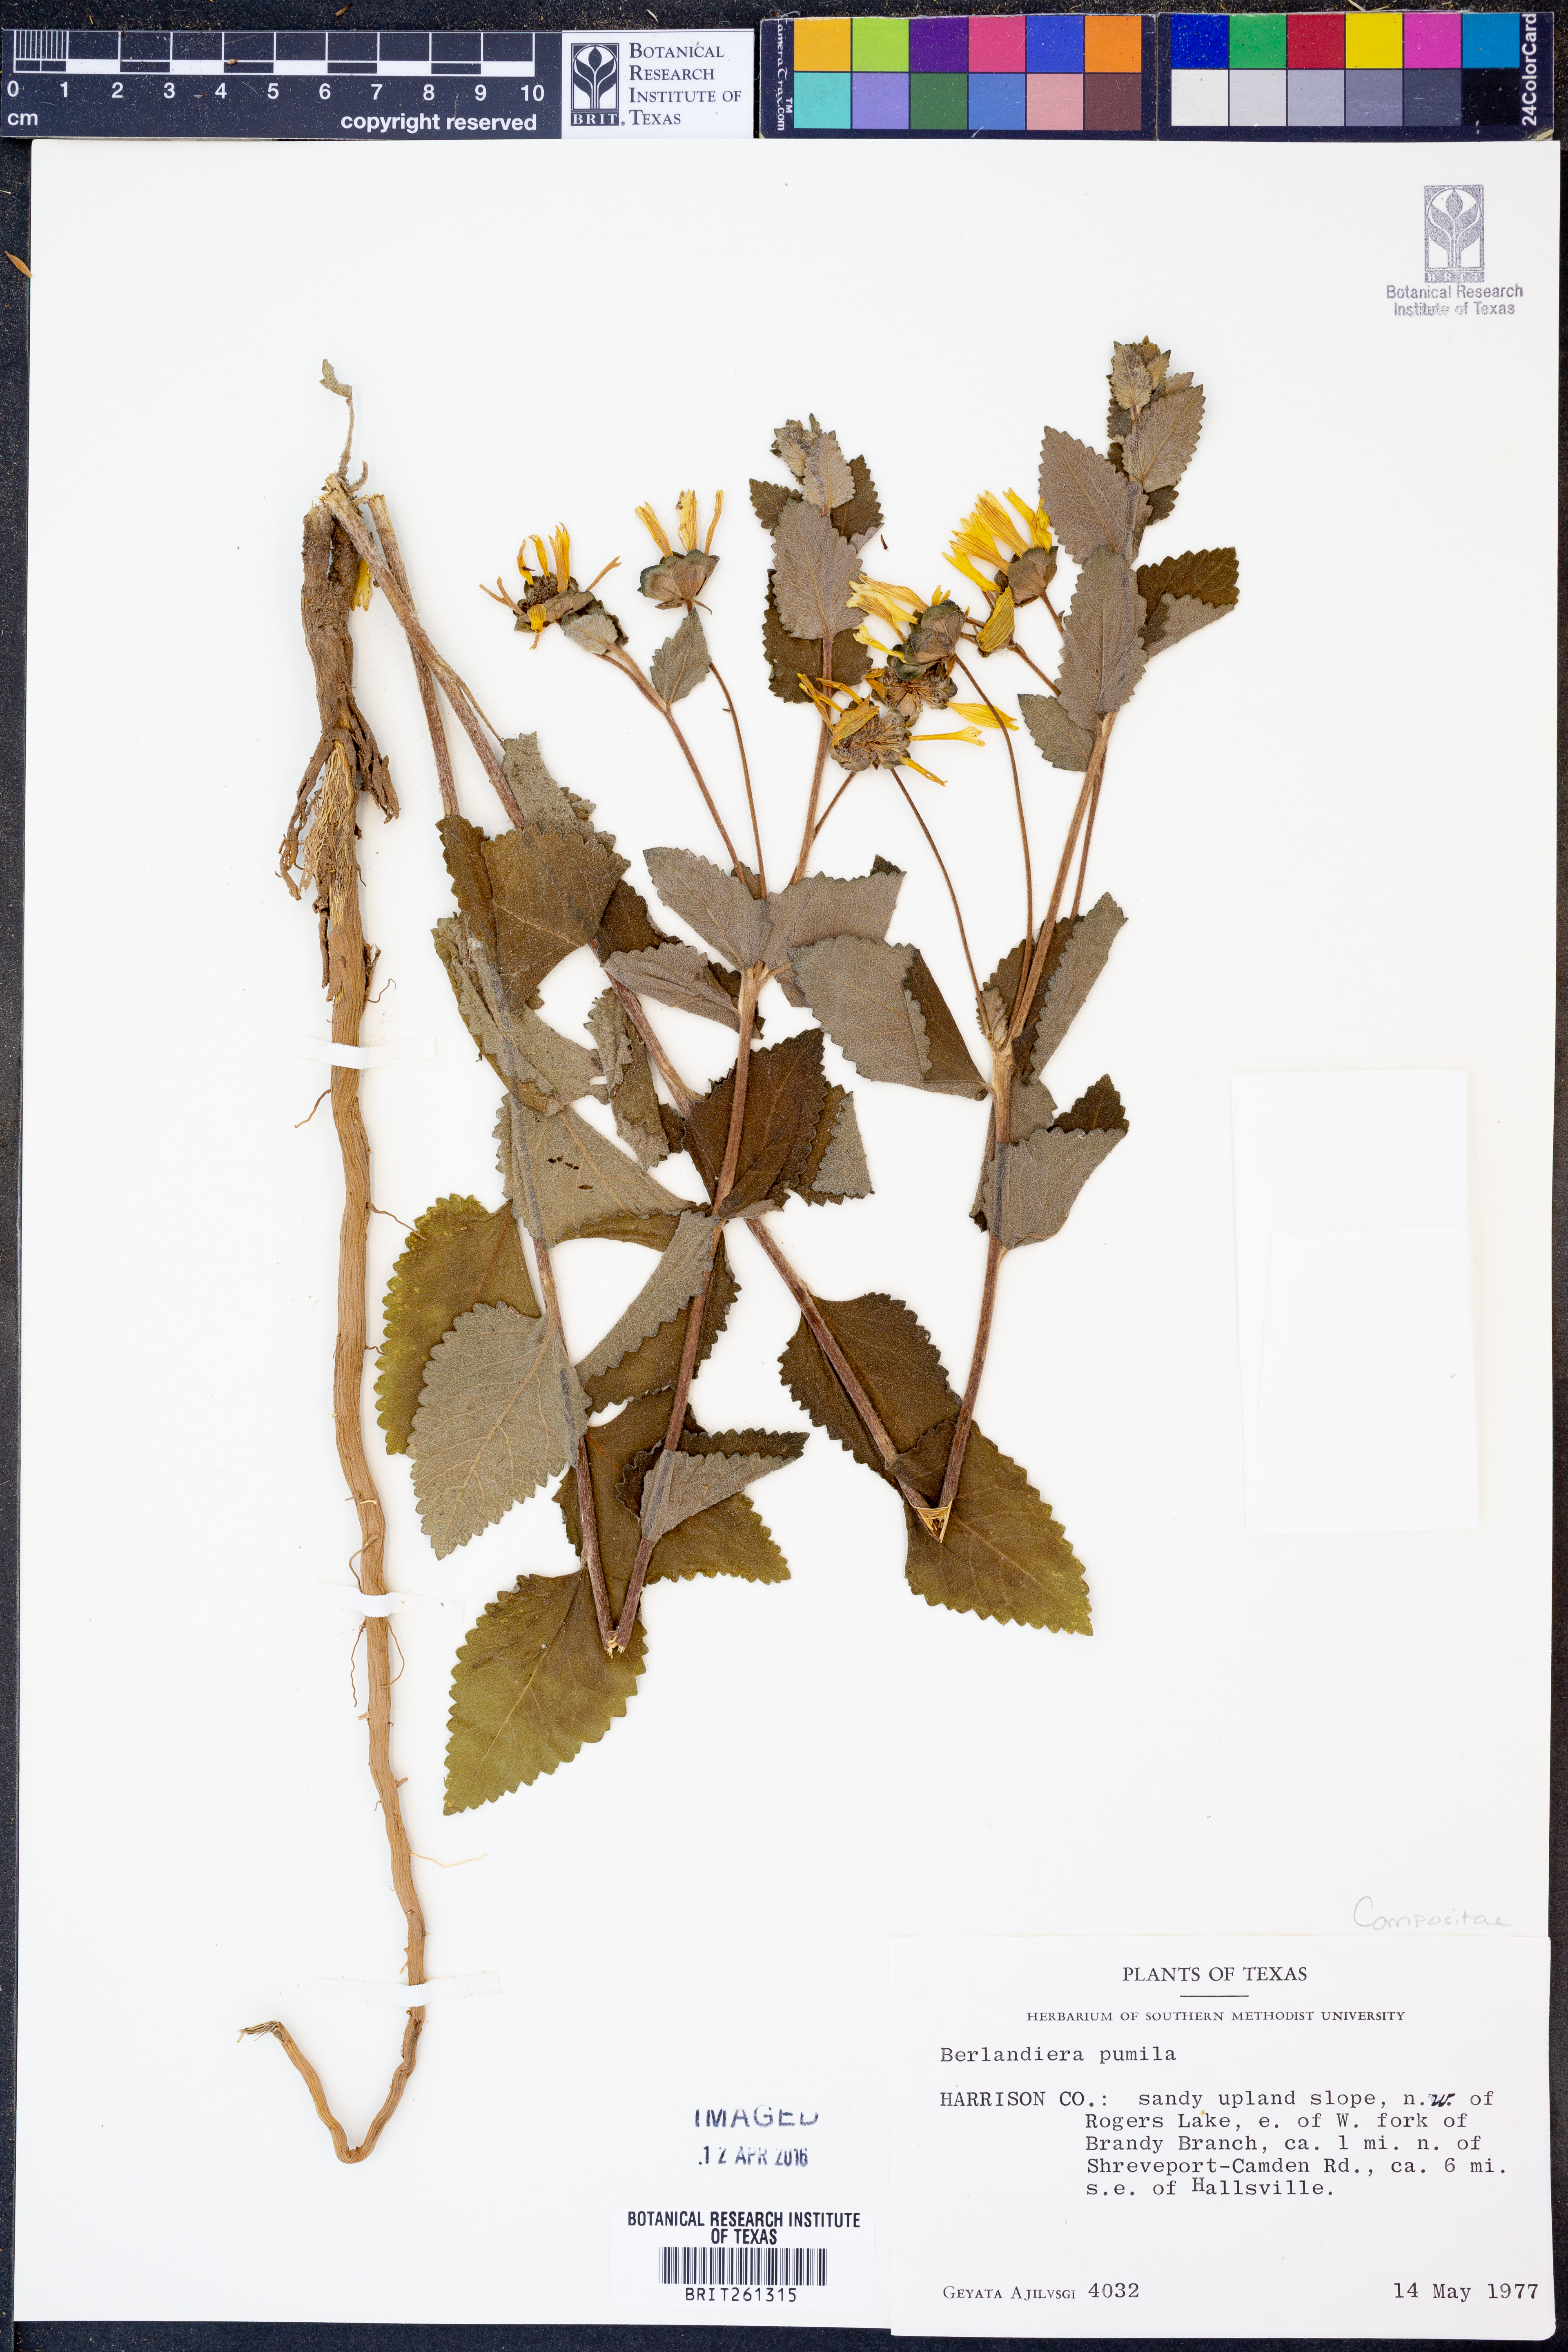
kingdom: Plantae
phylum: Tracheophyta
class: Magnoliopsida
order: Asterales
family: Asteraceae
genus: Berlandiera
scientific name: Berlandiera pumila
